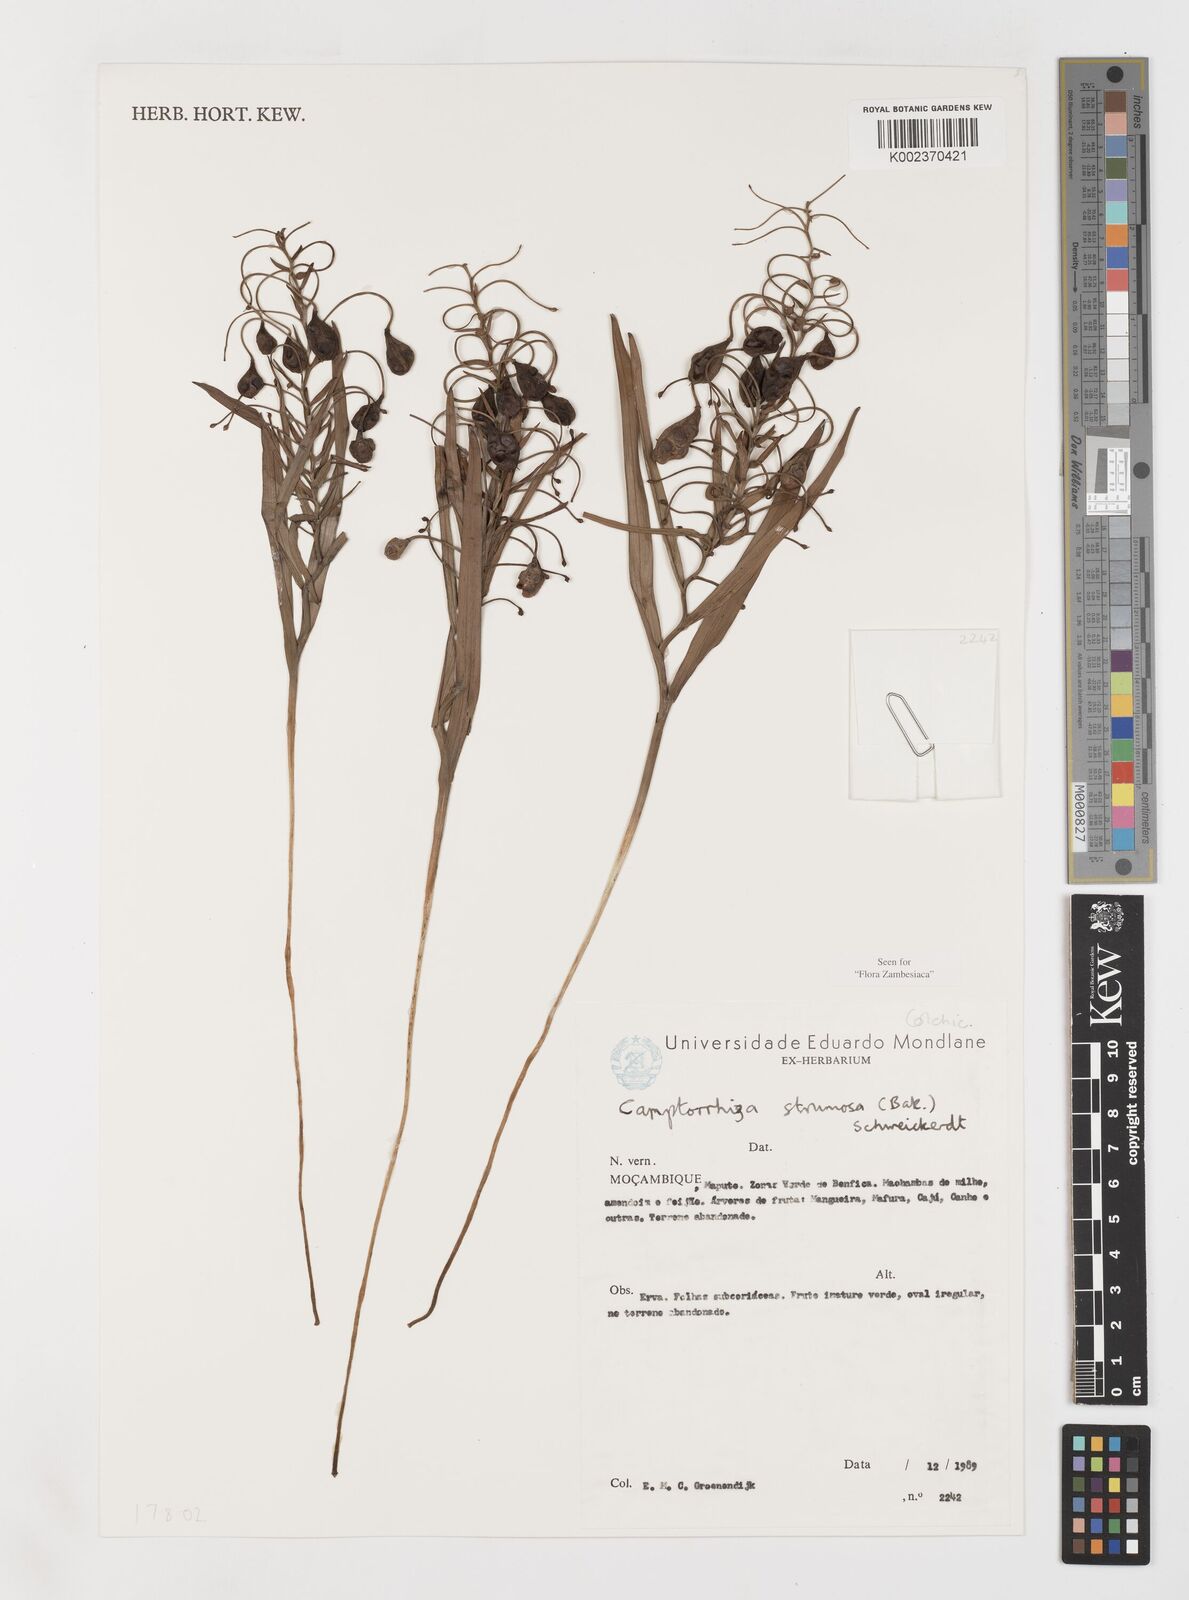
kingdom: Plantae
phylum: Tracheophyta
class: Liliopsida
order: Liliales
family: Colchicaceae
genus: Camptorrhiza
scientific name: Camptorrhiza strumosa
